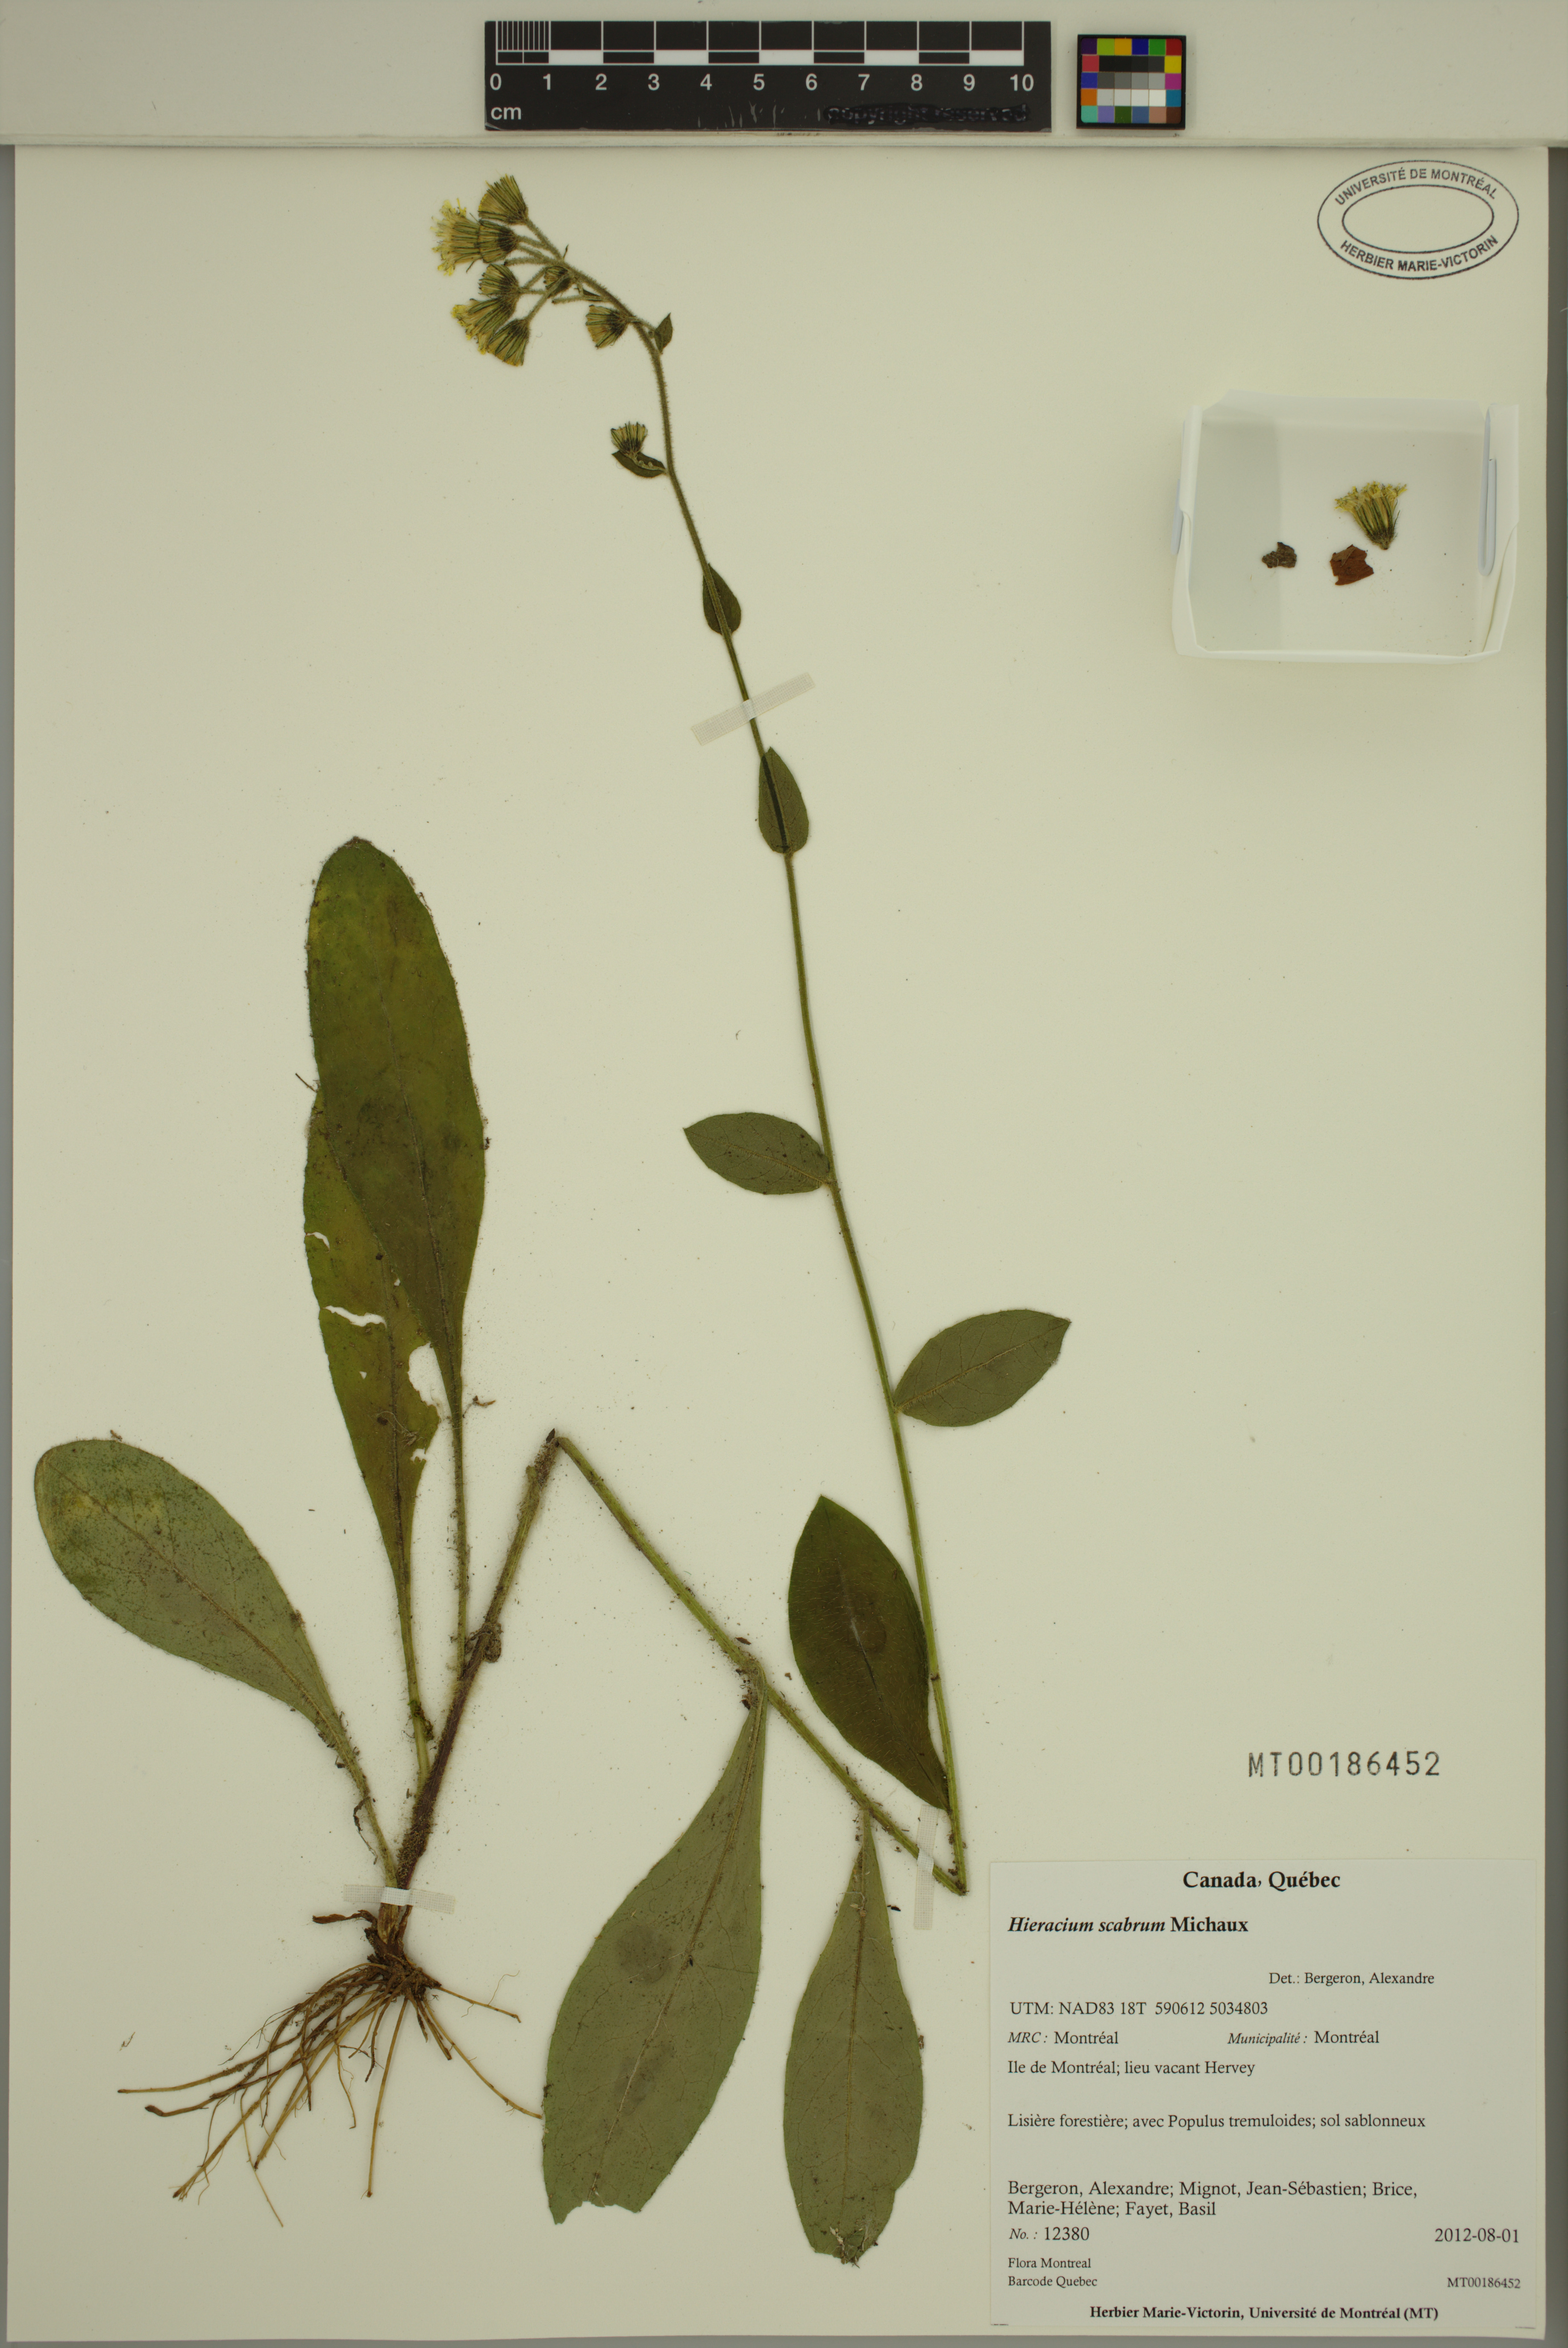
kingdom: Plantae
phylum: Tracheophyta
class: Magnoliopsida
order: Asterales
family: Asteraceae
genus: Hieracium
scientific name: Hieracium scabrum
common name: Rough hawkweed
